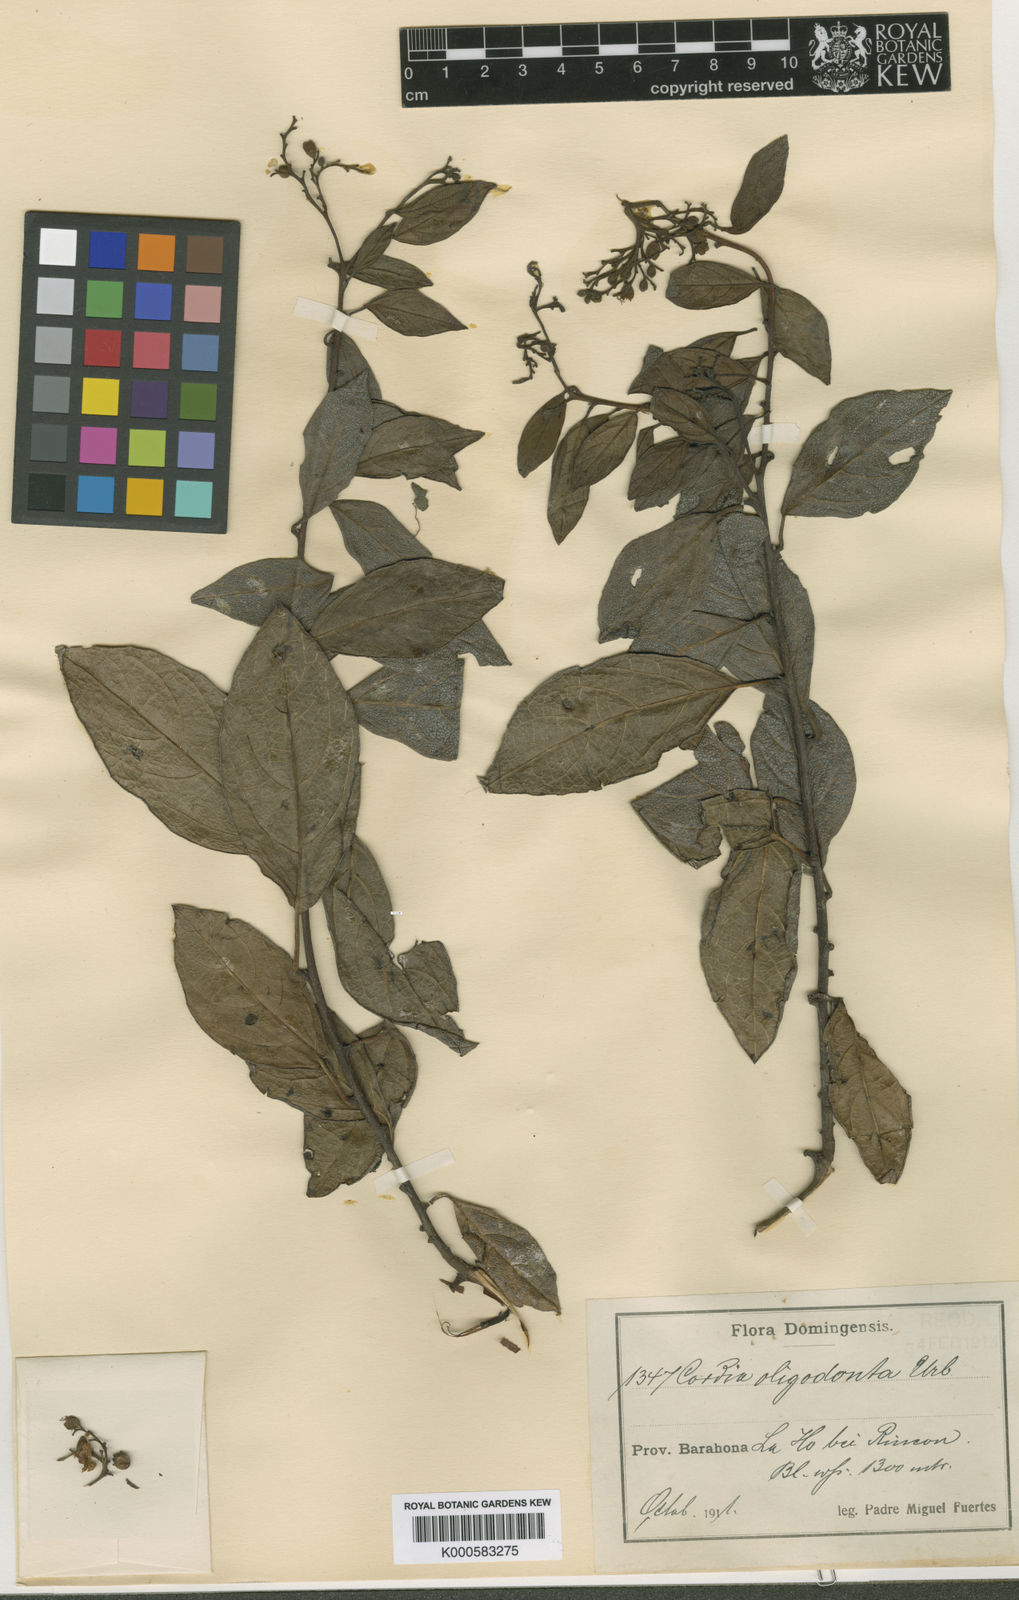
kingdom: Plantae
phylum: Tracheophyta
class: Magnoliopsida
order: Boraginales
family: Cordiaceae
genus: Varronia
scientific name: Varronia oligodonta
